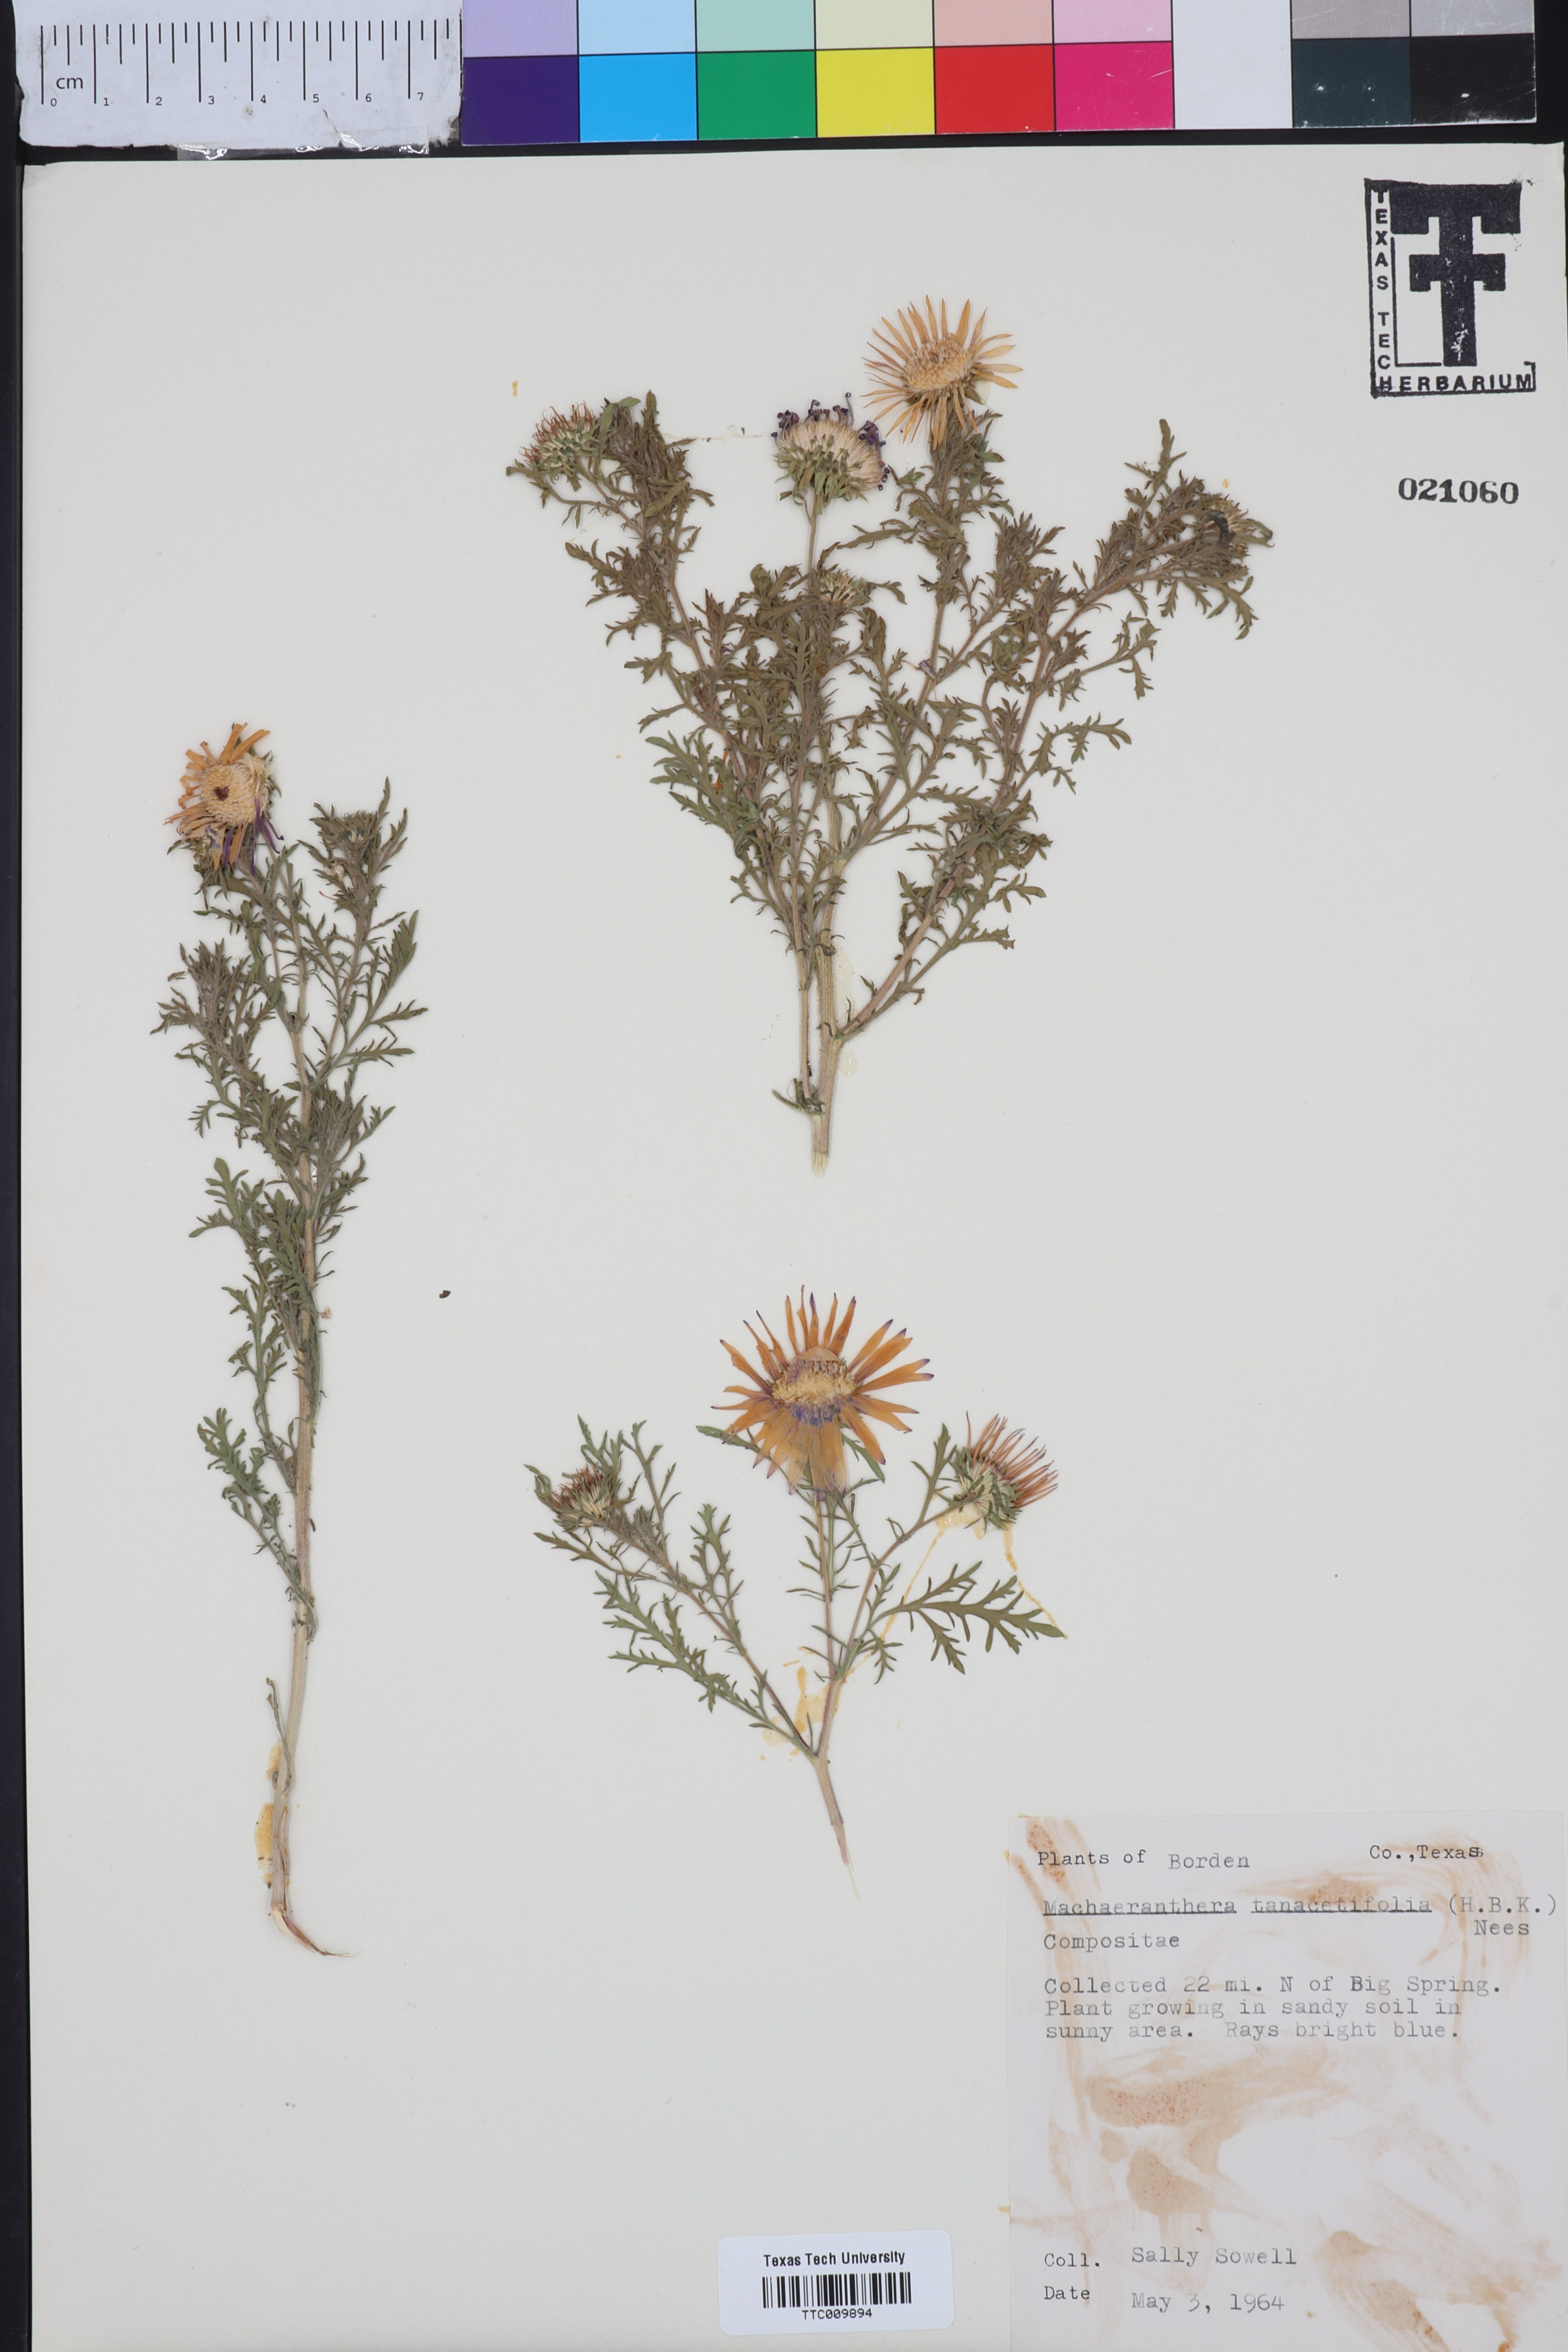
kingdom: Plantae
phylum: Tracheophyta
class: Magnoliopsida
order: Asterales
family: Asteraceae
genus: Machaeranthera
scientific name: Machaeranthera tanacetifolia
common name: Tansy-aster
